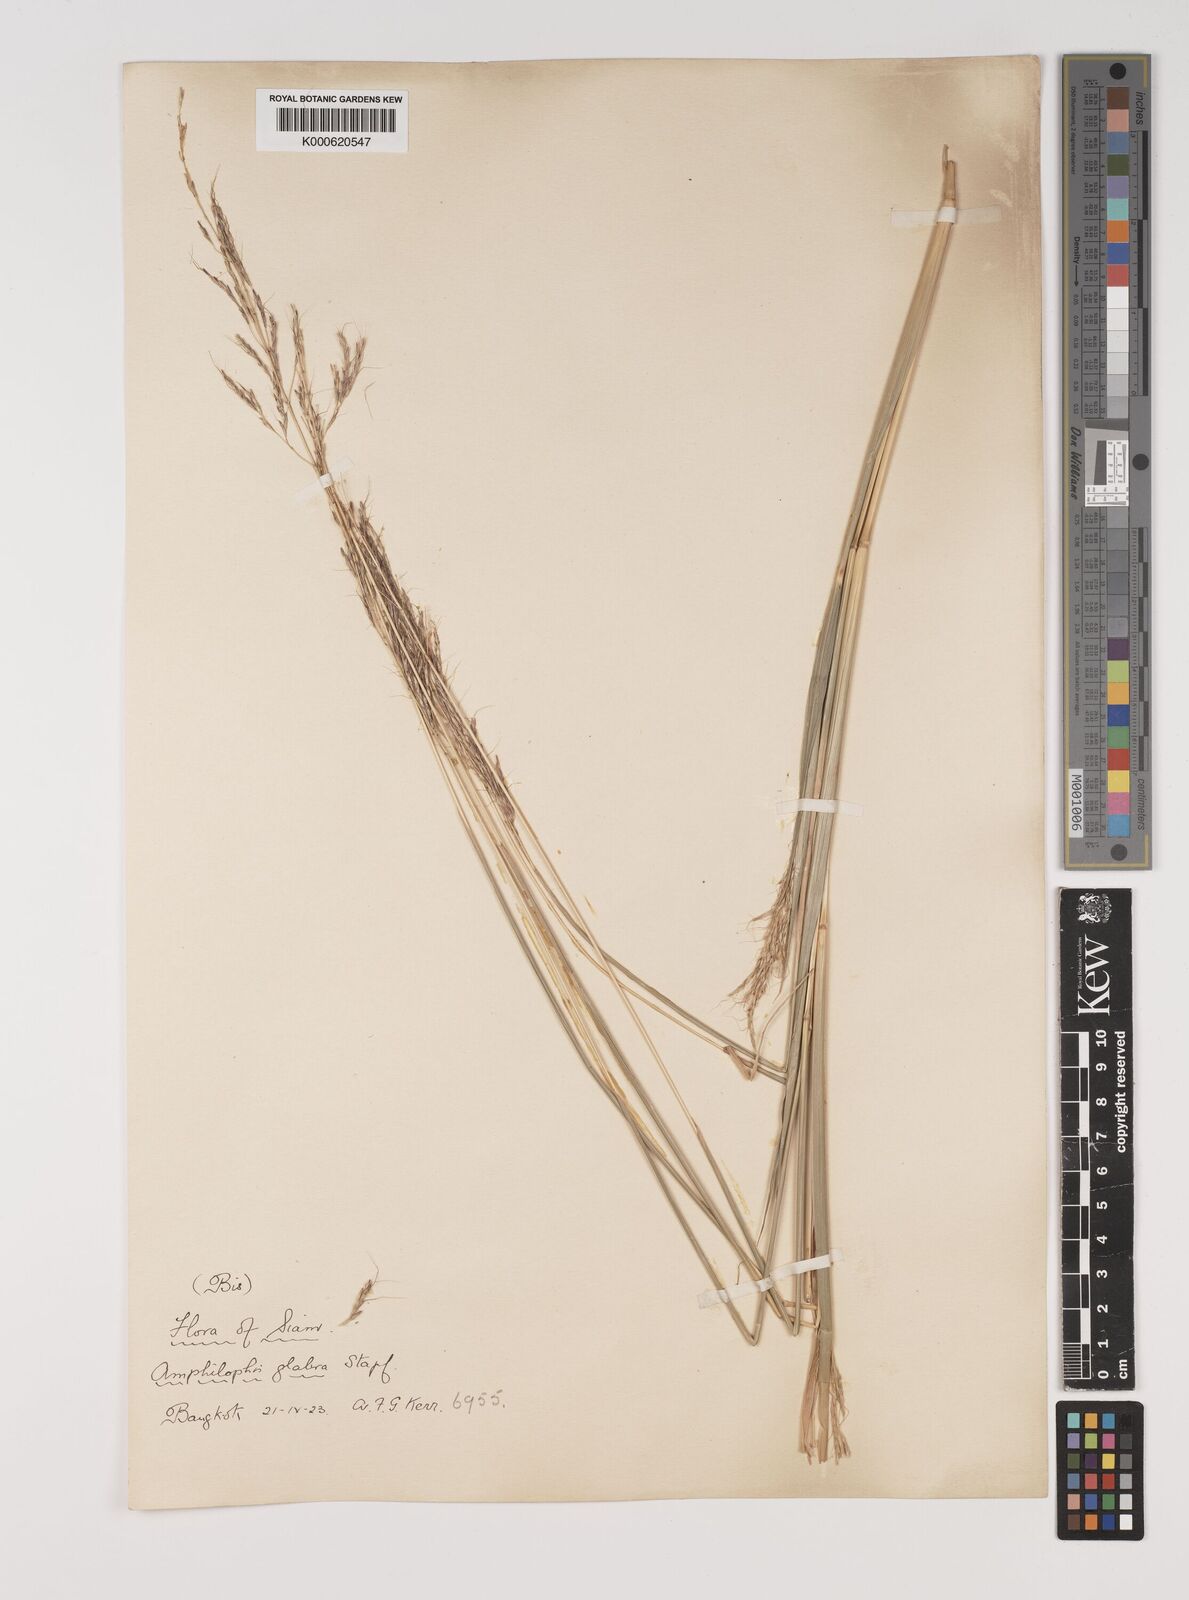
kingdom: Plantae
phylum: Tracheophyta
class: Liliopsida
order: Poales
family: Poaceae
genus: Bothriochloa
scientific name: Bothriochloa bladhii
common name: Caucasian bluestem
